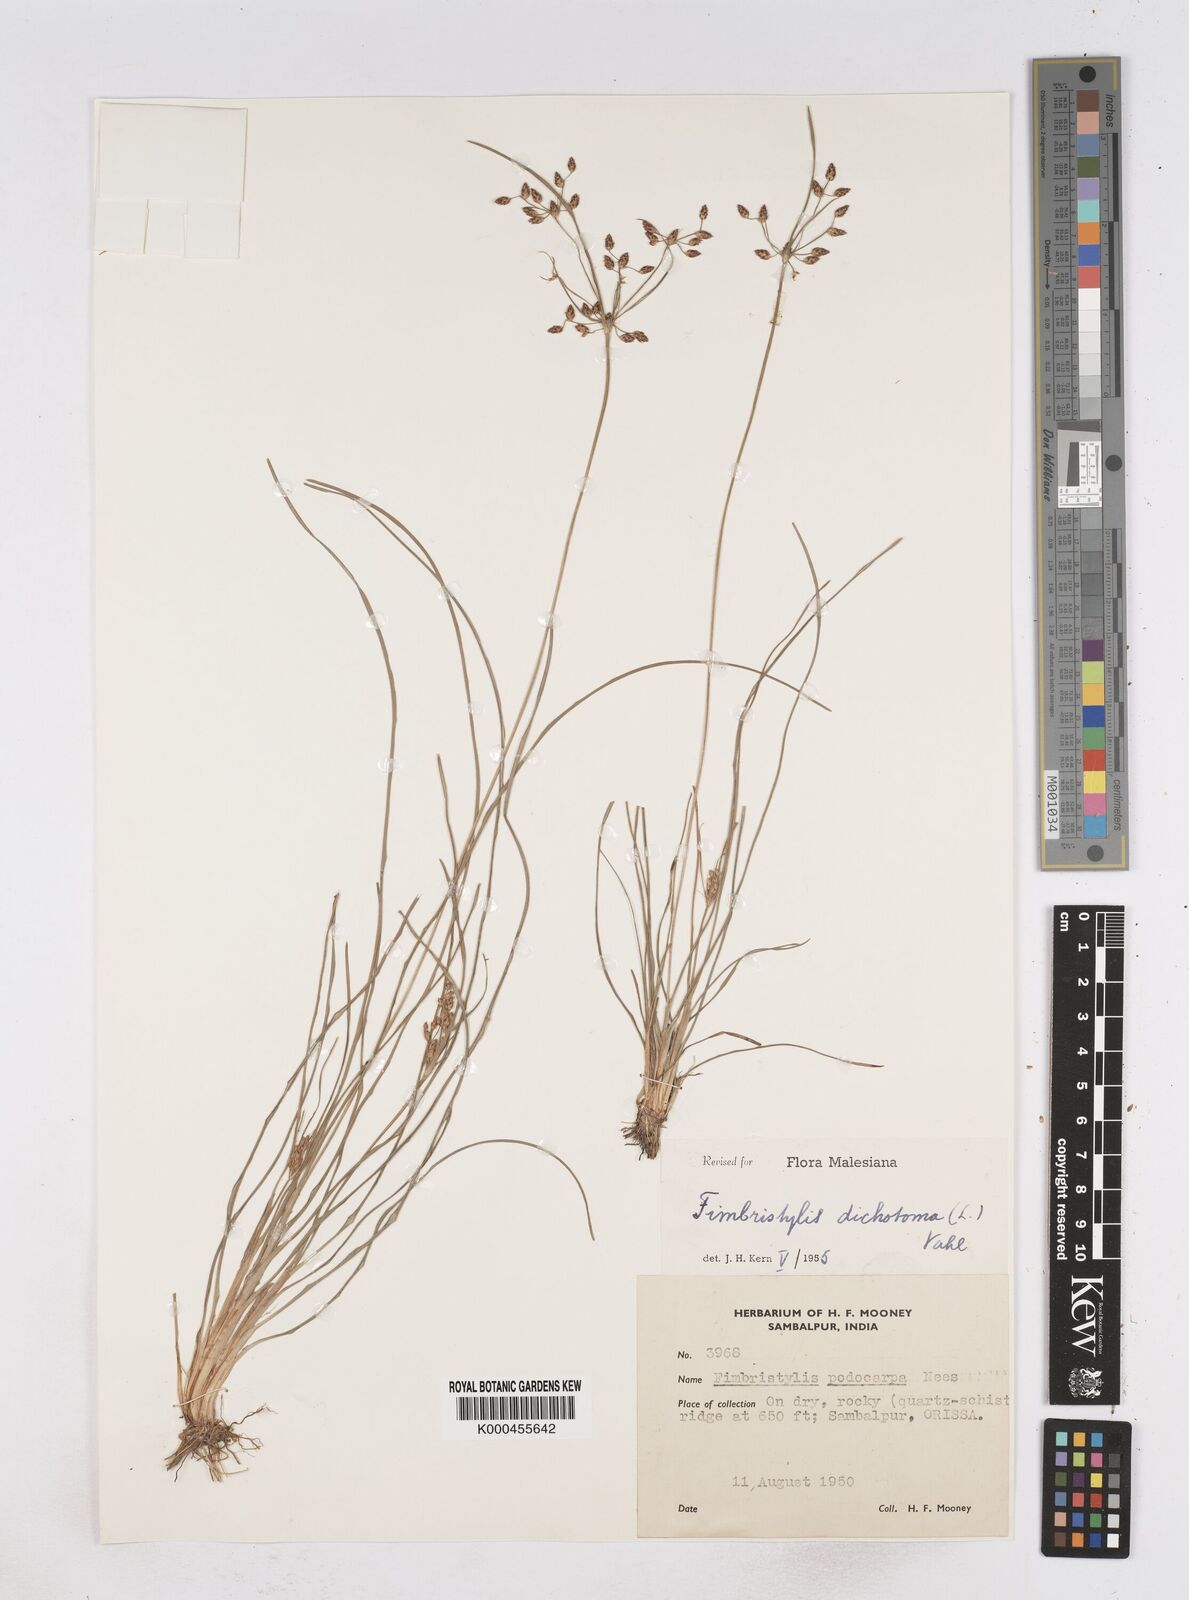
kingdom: Plantae
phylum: Tracheophyta
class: Liliopsida
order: Poales
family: Cyperaceae
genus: Fimbristylis
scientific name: Fimbristylis dichotoma
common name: Forked fimbry
